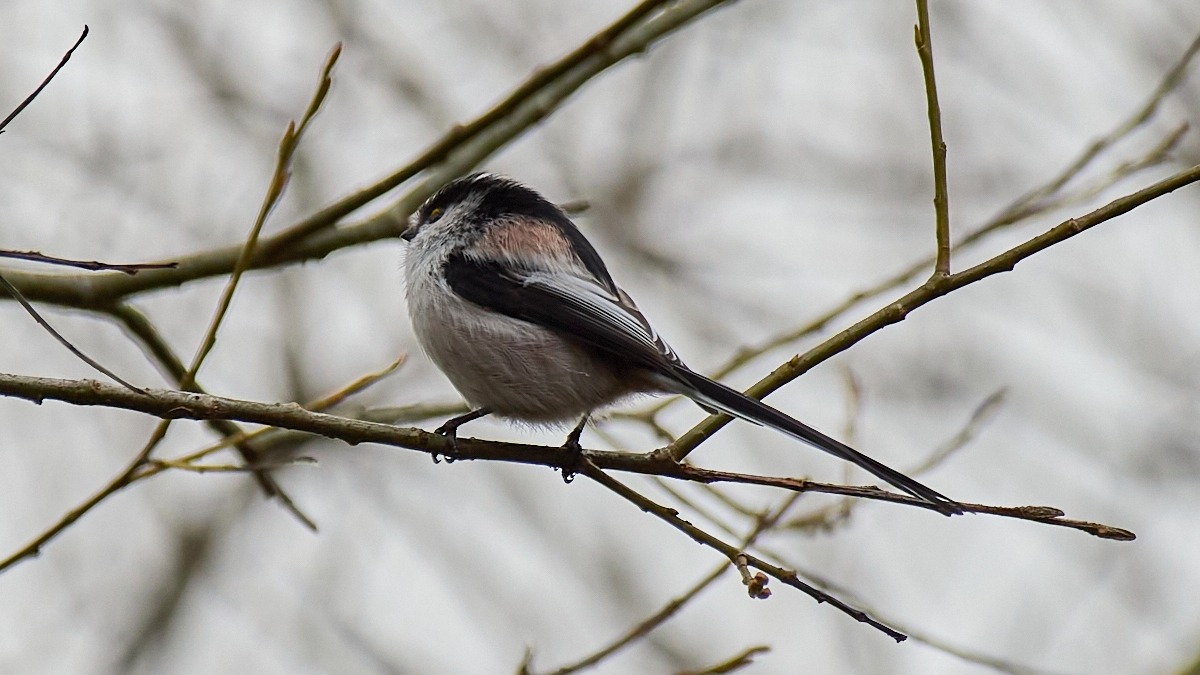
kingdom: Animalia
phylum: Chordata
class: Aves
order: Passeriformes
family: Aegithalidae
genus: Aegithalos
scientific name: Aegithalos caudatus
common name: Halemejse
